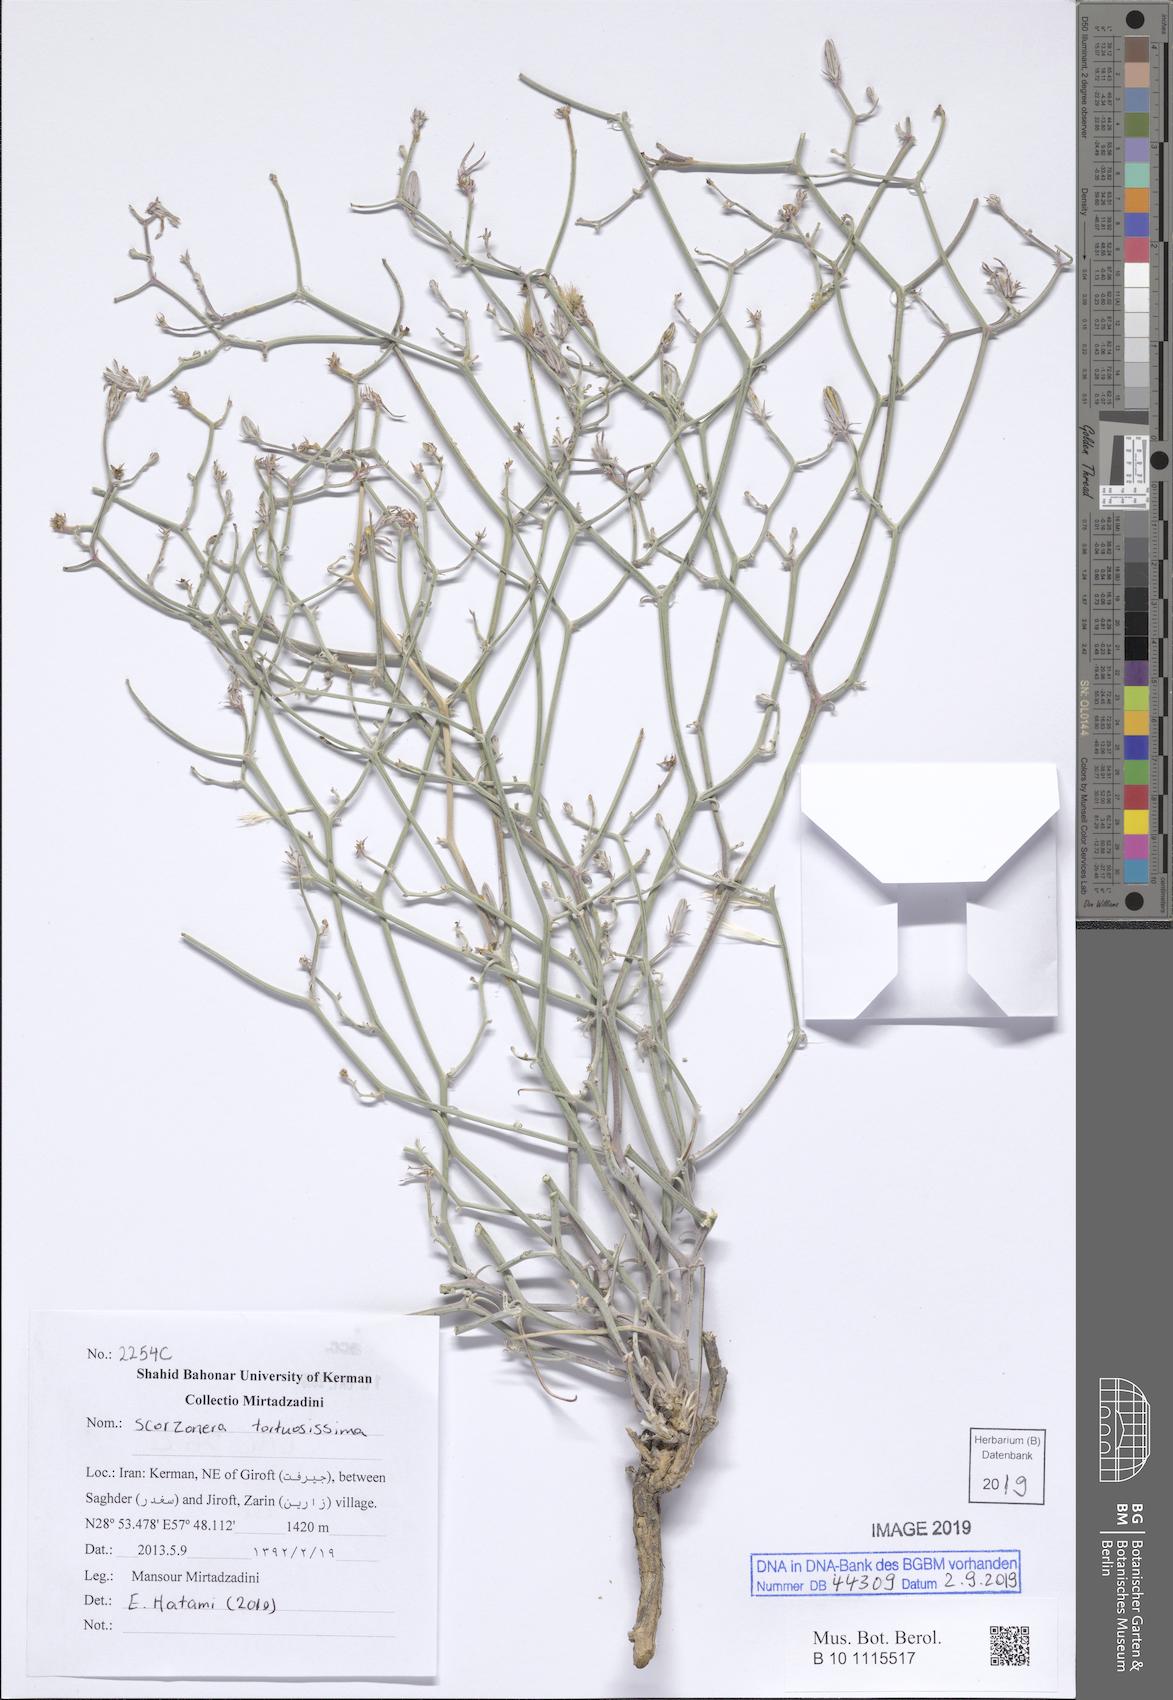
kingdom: Plantae
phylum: Tracheophyta
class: Magnoliopsida
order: Asterales
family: Asteraceae
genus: Ramaliella
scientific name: Ramaliella tortuosissima
